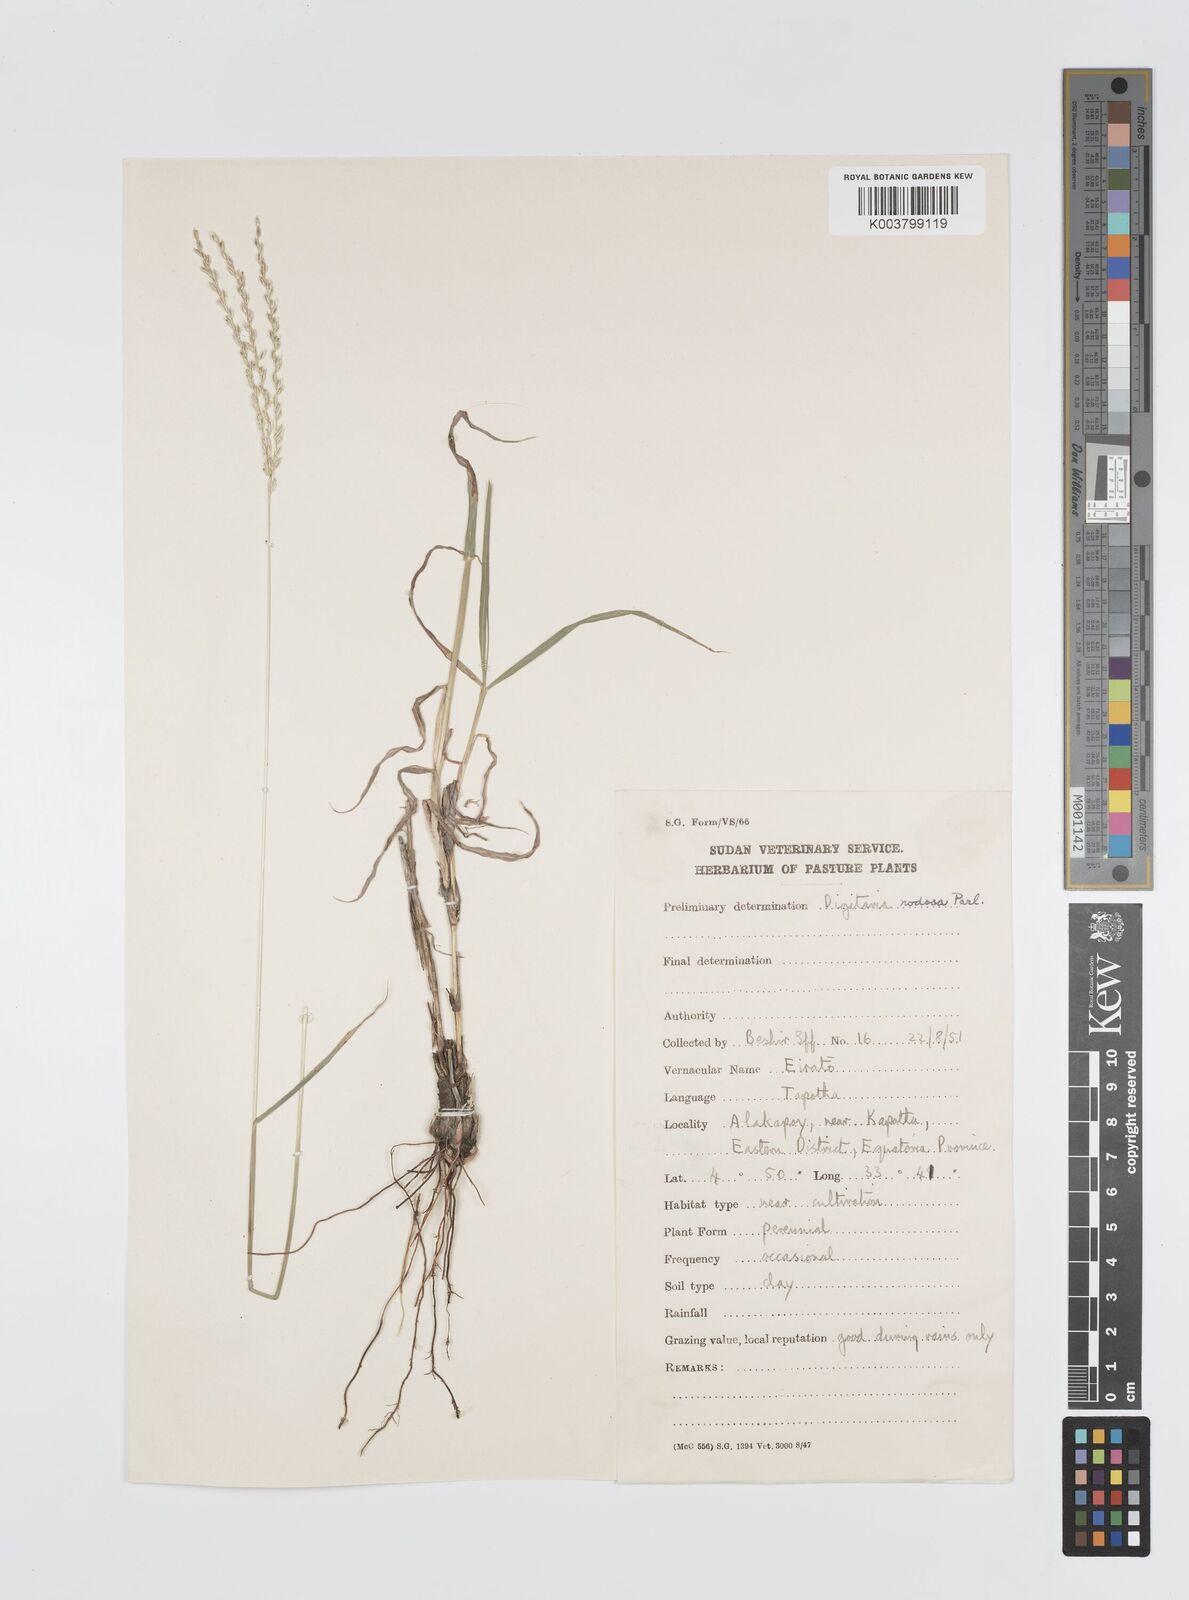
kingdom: Plantae
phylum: Tracheophyta
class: Liliopsida
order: Poales
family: Poaceae
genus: Digitaria
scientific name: Digitaria macroblephara
